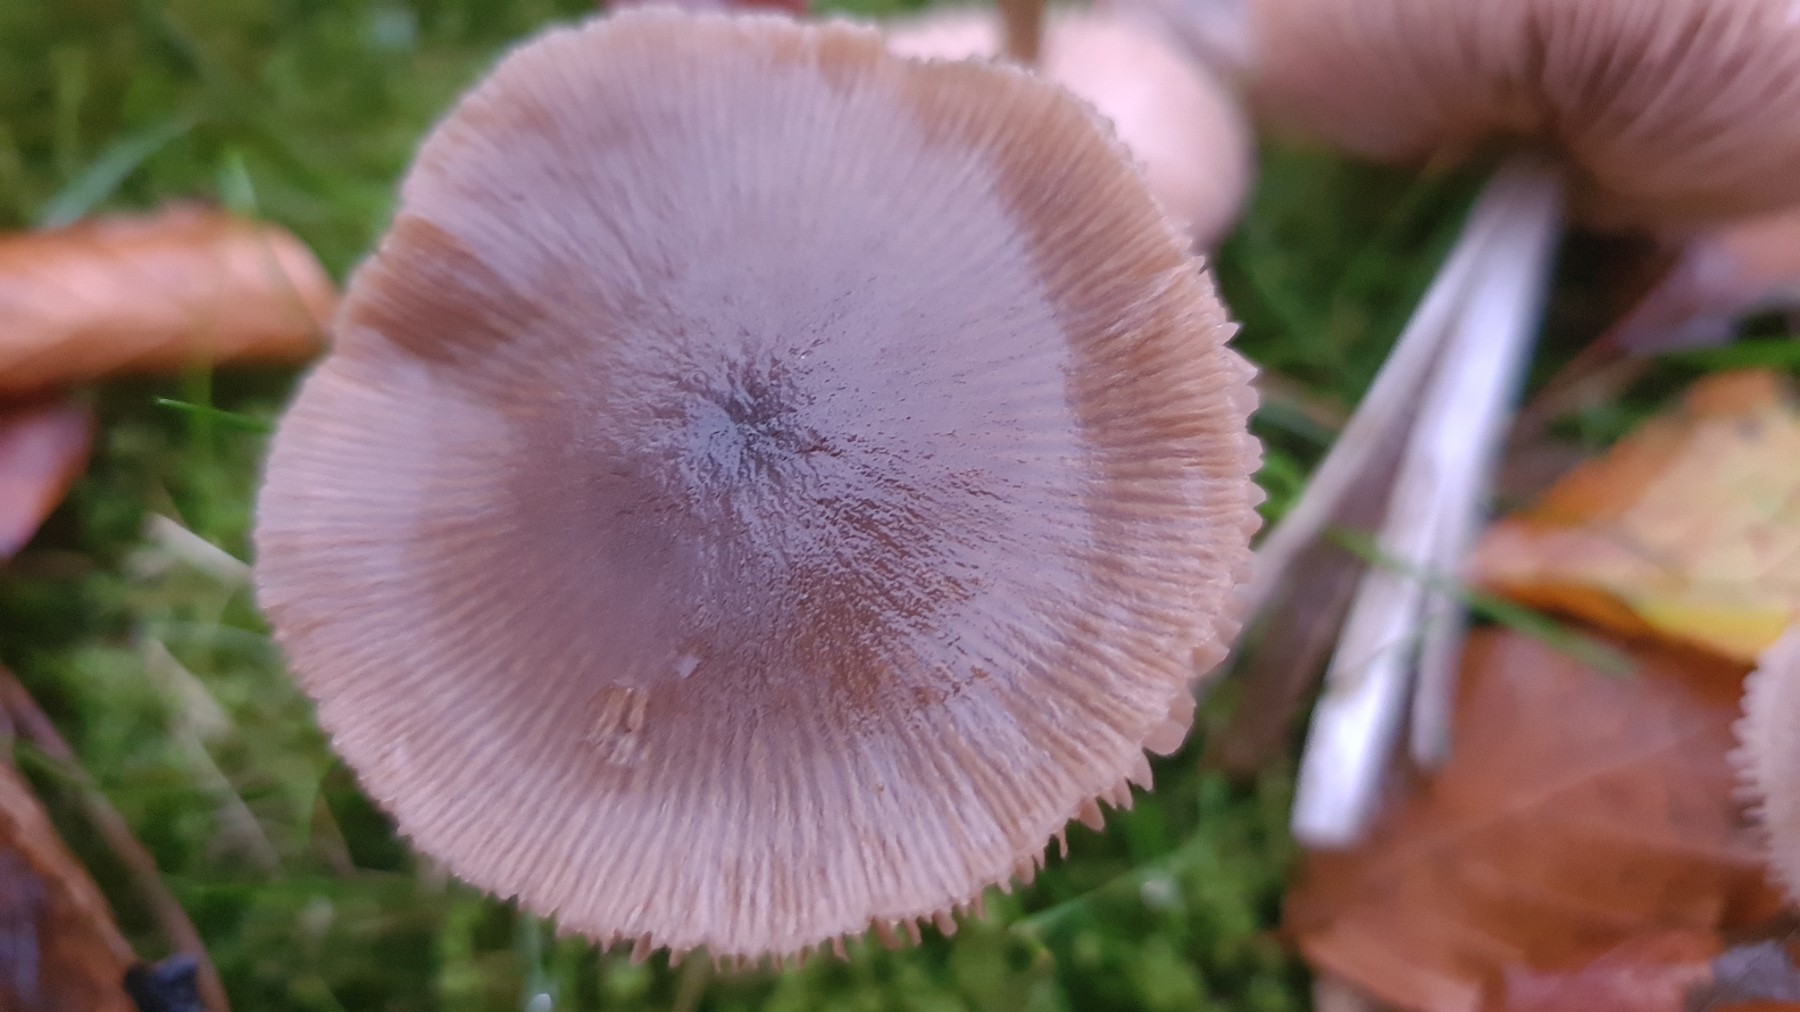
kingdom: Fungi
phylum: Basidiomycota
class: Agaricomycetes
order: Agaricales
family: Entolomataceae
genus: Entoloma
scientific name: Entoloma conferendum
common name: stjernesporet rødblad
